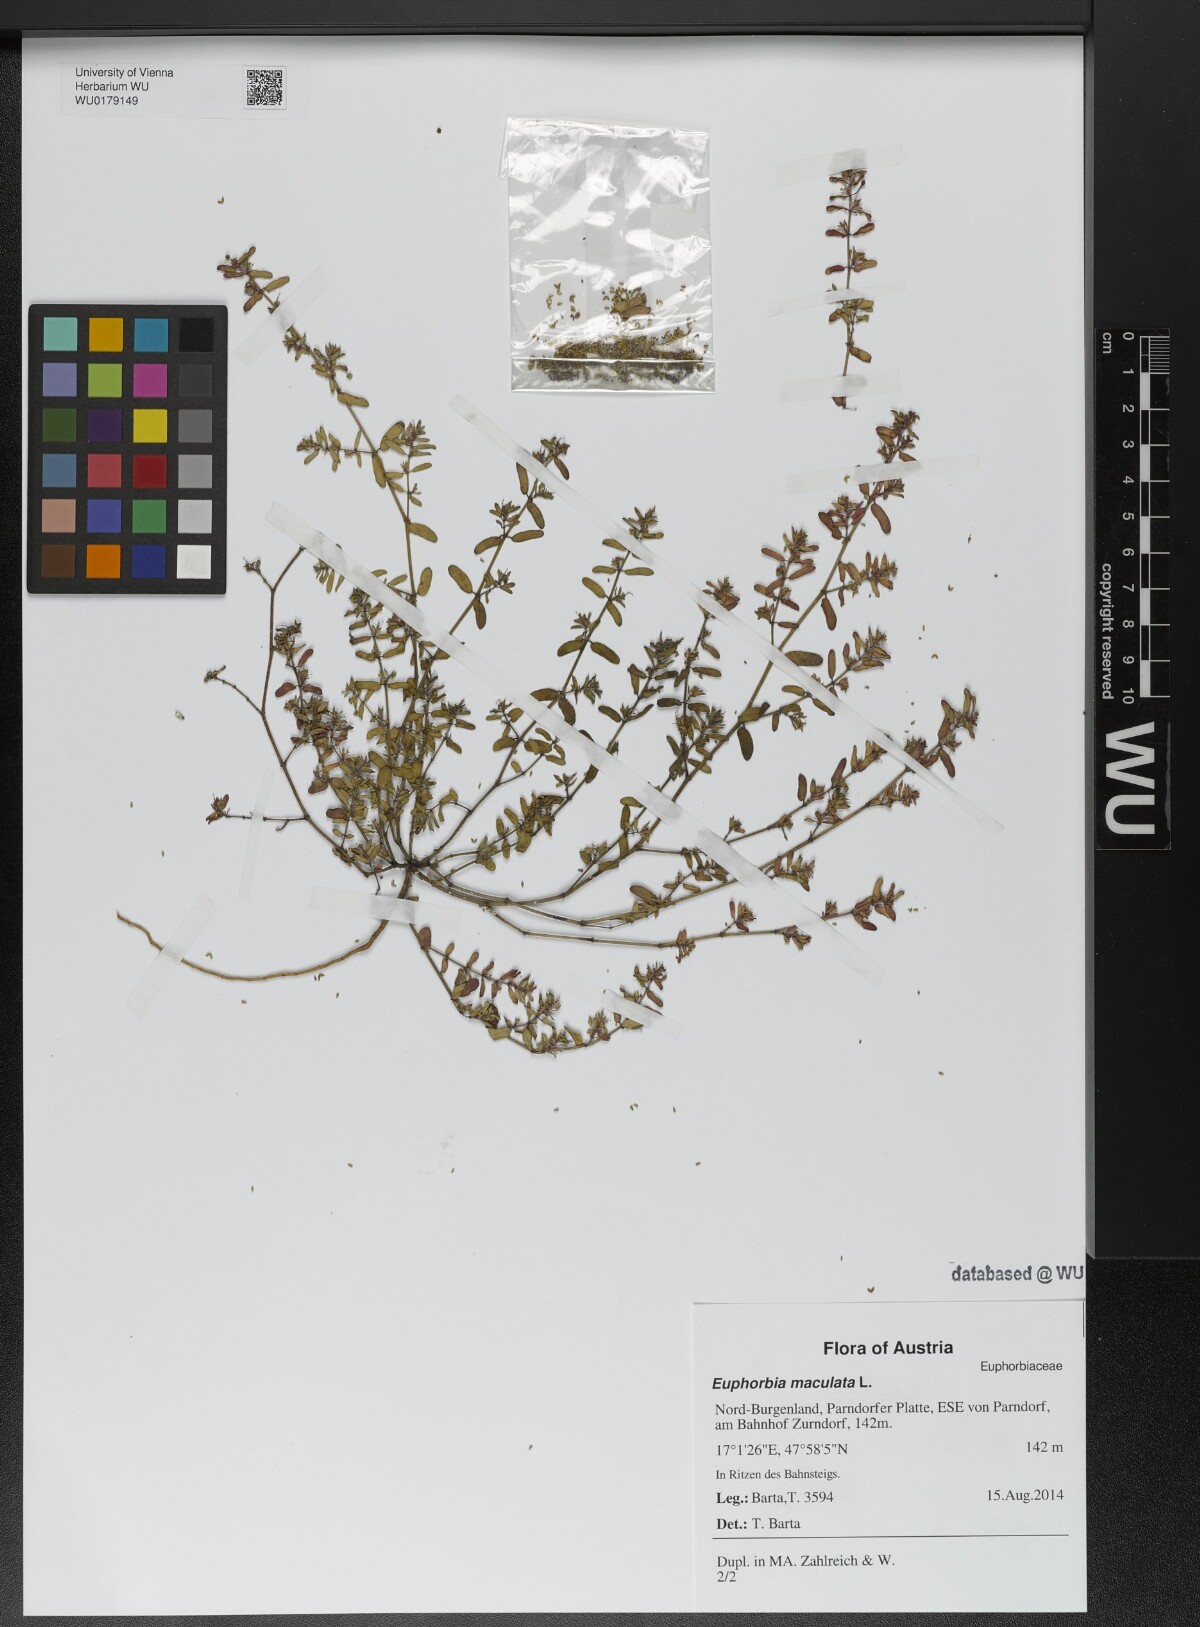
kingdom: Plantae
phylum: Tracheophyta
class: Magnoliopsida
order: Malpighiales
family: Euphorbiaceae
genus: Euphorbia
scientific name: Euphorbia maculata
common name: Spotted spurge
